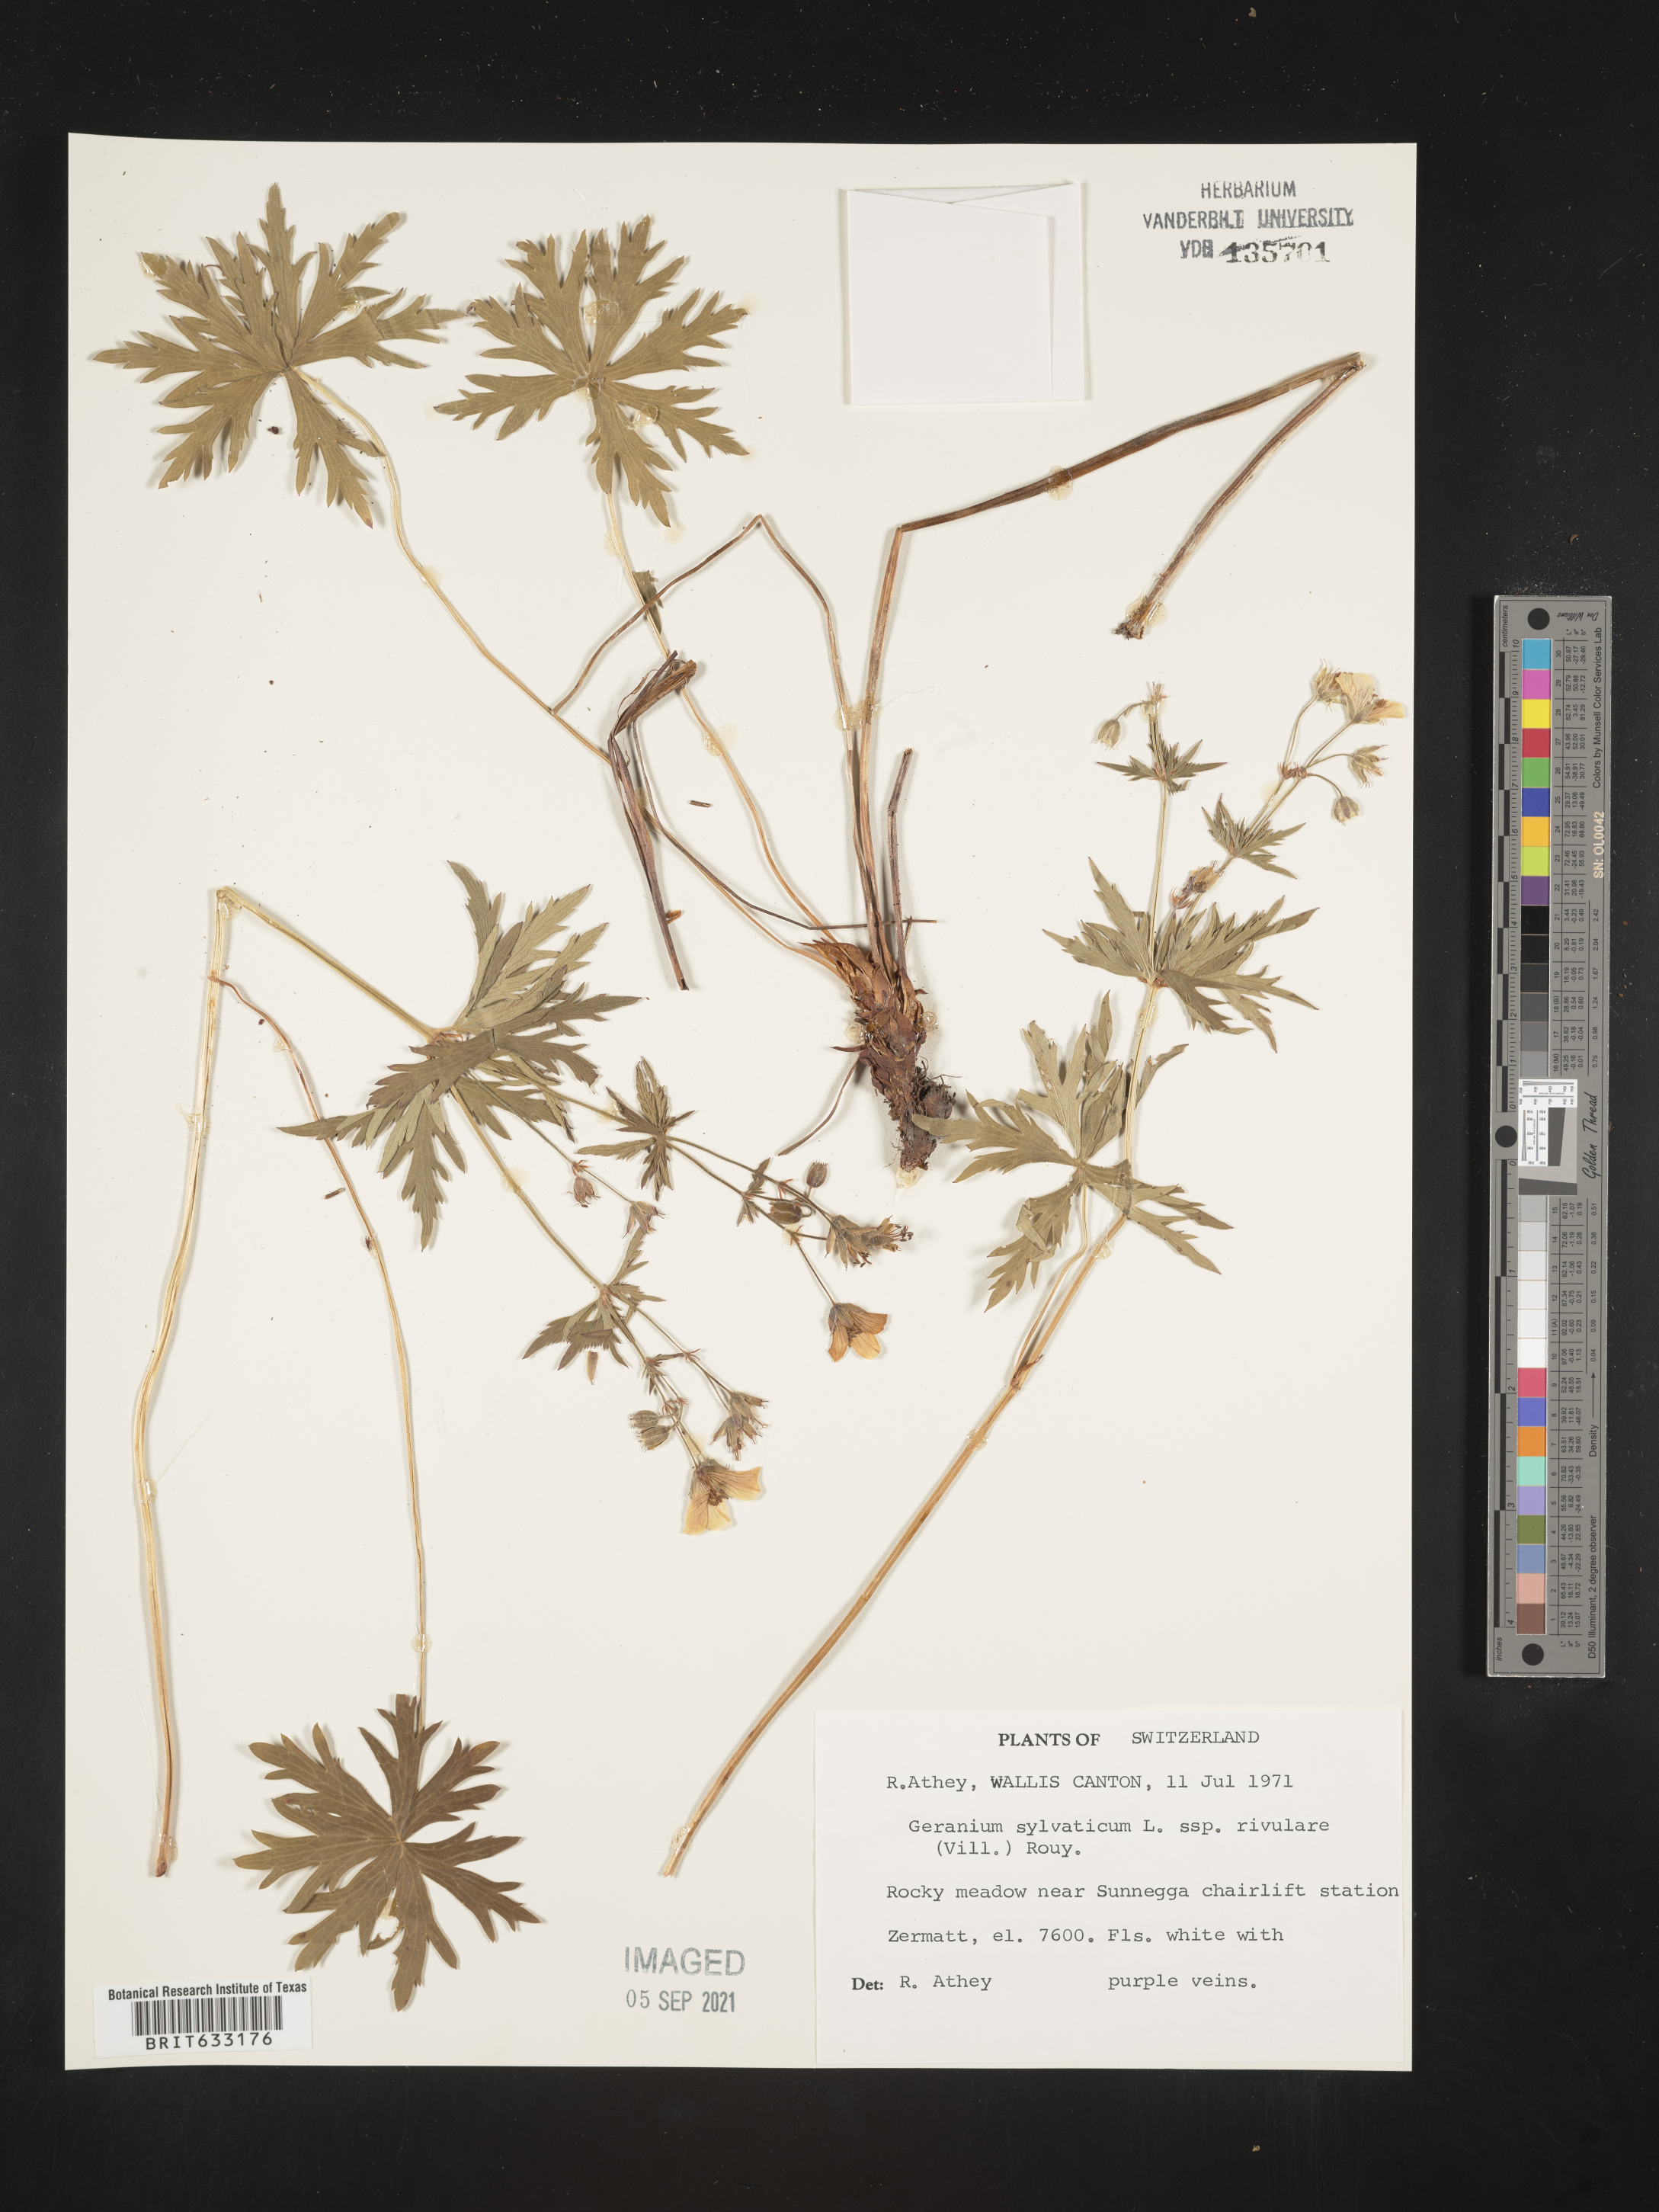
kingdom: Plantae
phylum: Tracheophyta
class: Magnoliopsida
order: Geraniales
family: Geraniaceae
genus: Geranium
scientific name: Geranium
